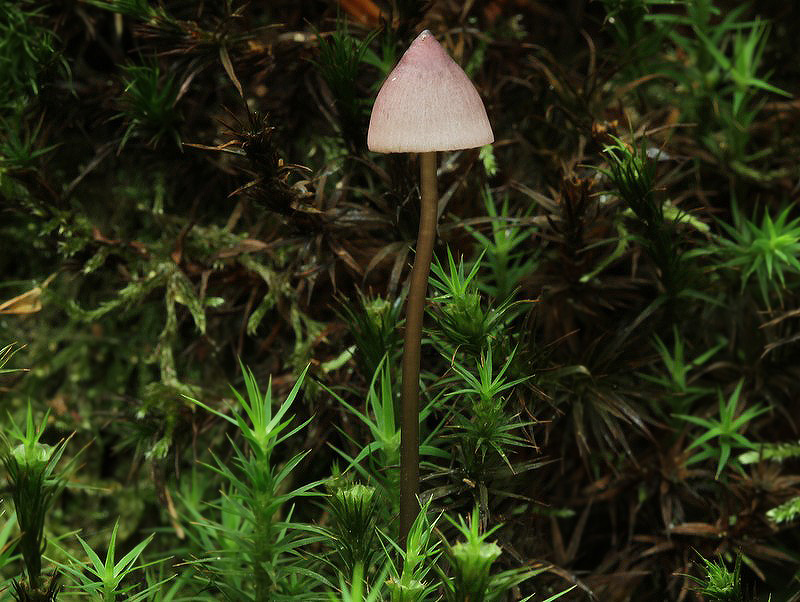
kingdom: Fungi
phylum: Basidiomycota
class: Agaricomycetes
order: Agaricales
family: Mycenaceae
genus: Mycena
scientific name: Mycena purpureofusca
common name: purpur-huesvamp
